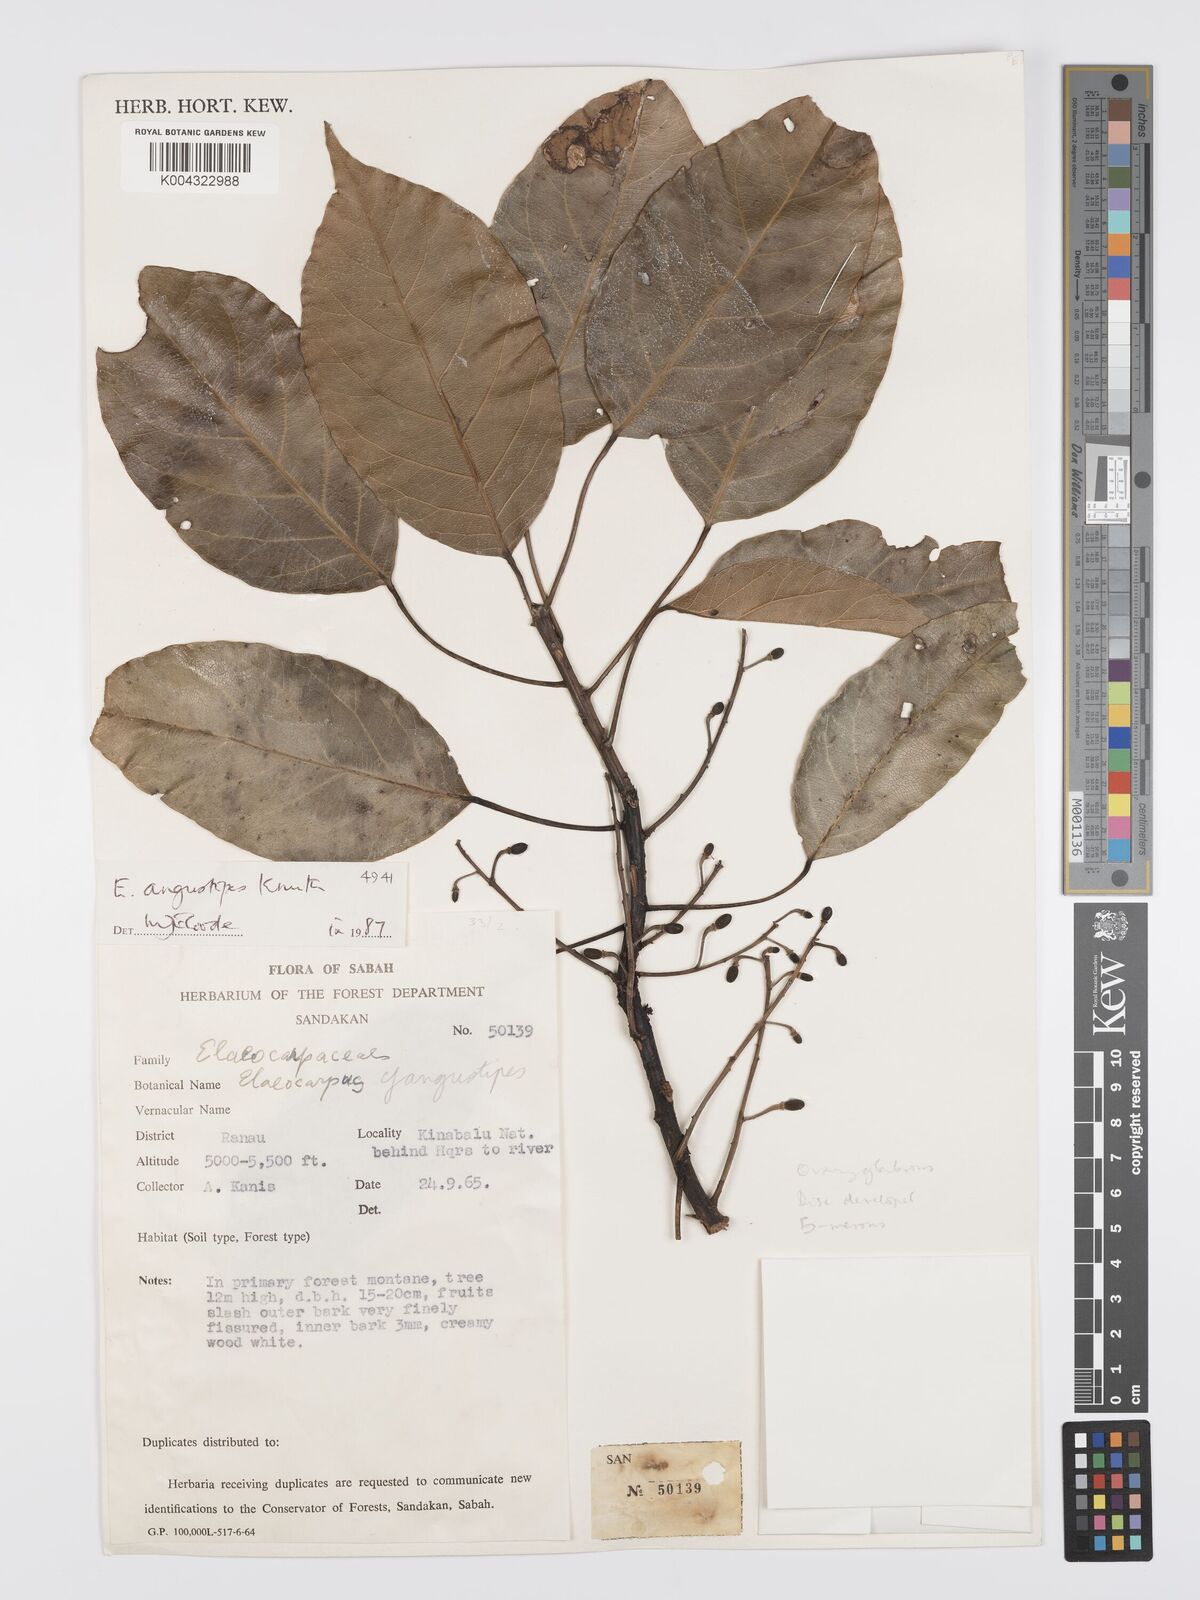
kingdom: Plantae
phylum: Tracheophyta
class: Magnoliopsida
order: Oxalidales
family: Elaeocarpaceae
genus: Elaeocarpus
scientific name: Elaeocarpus angustipes
